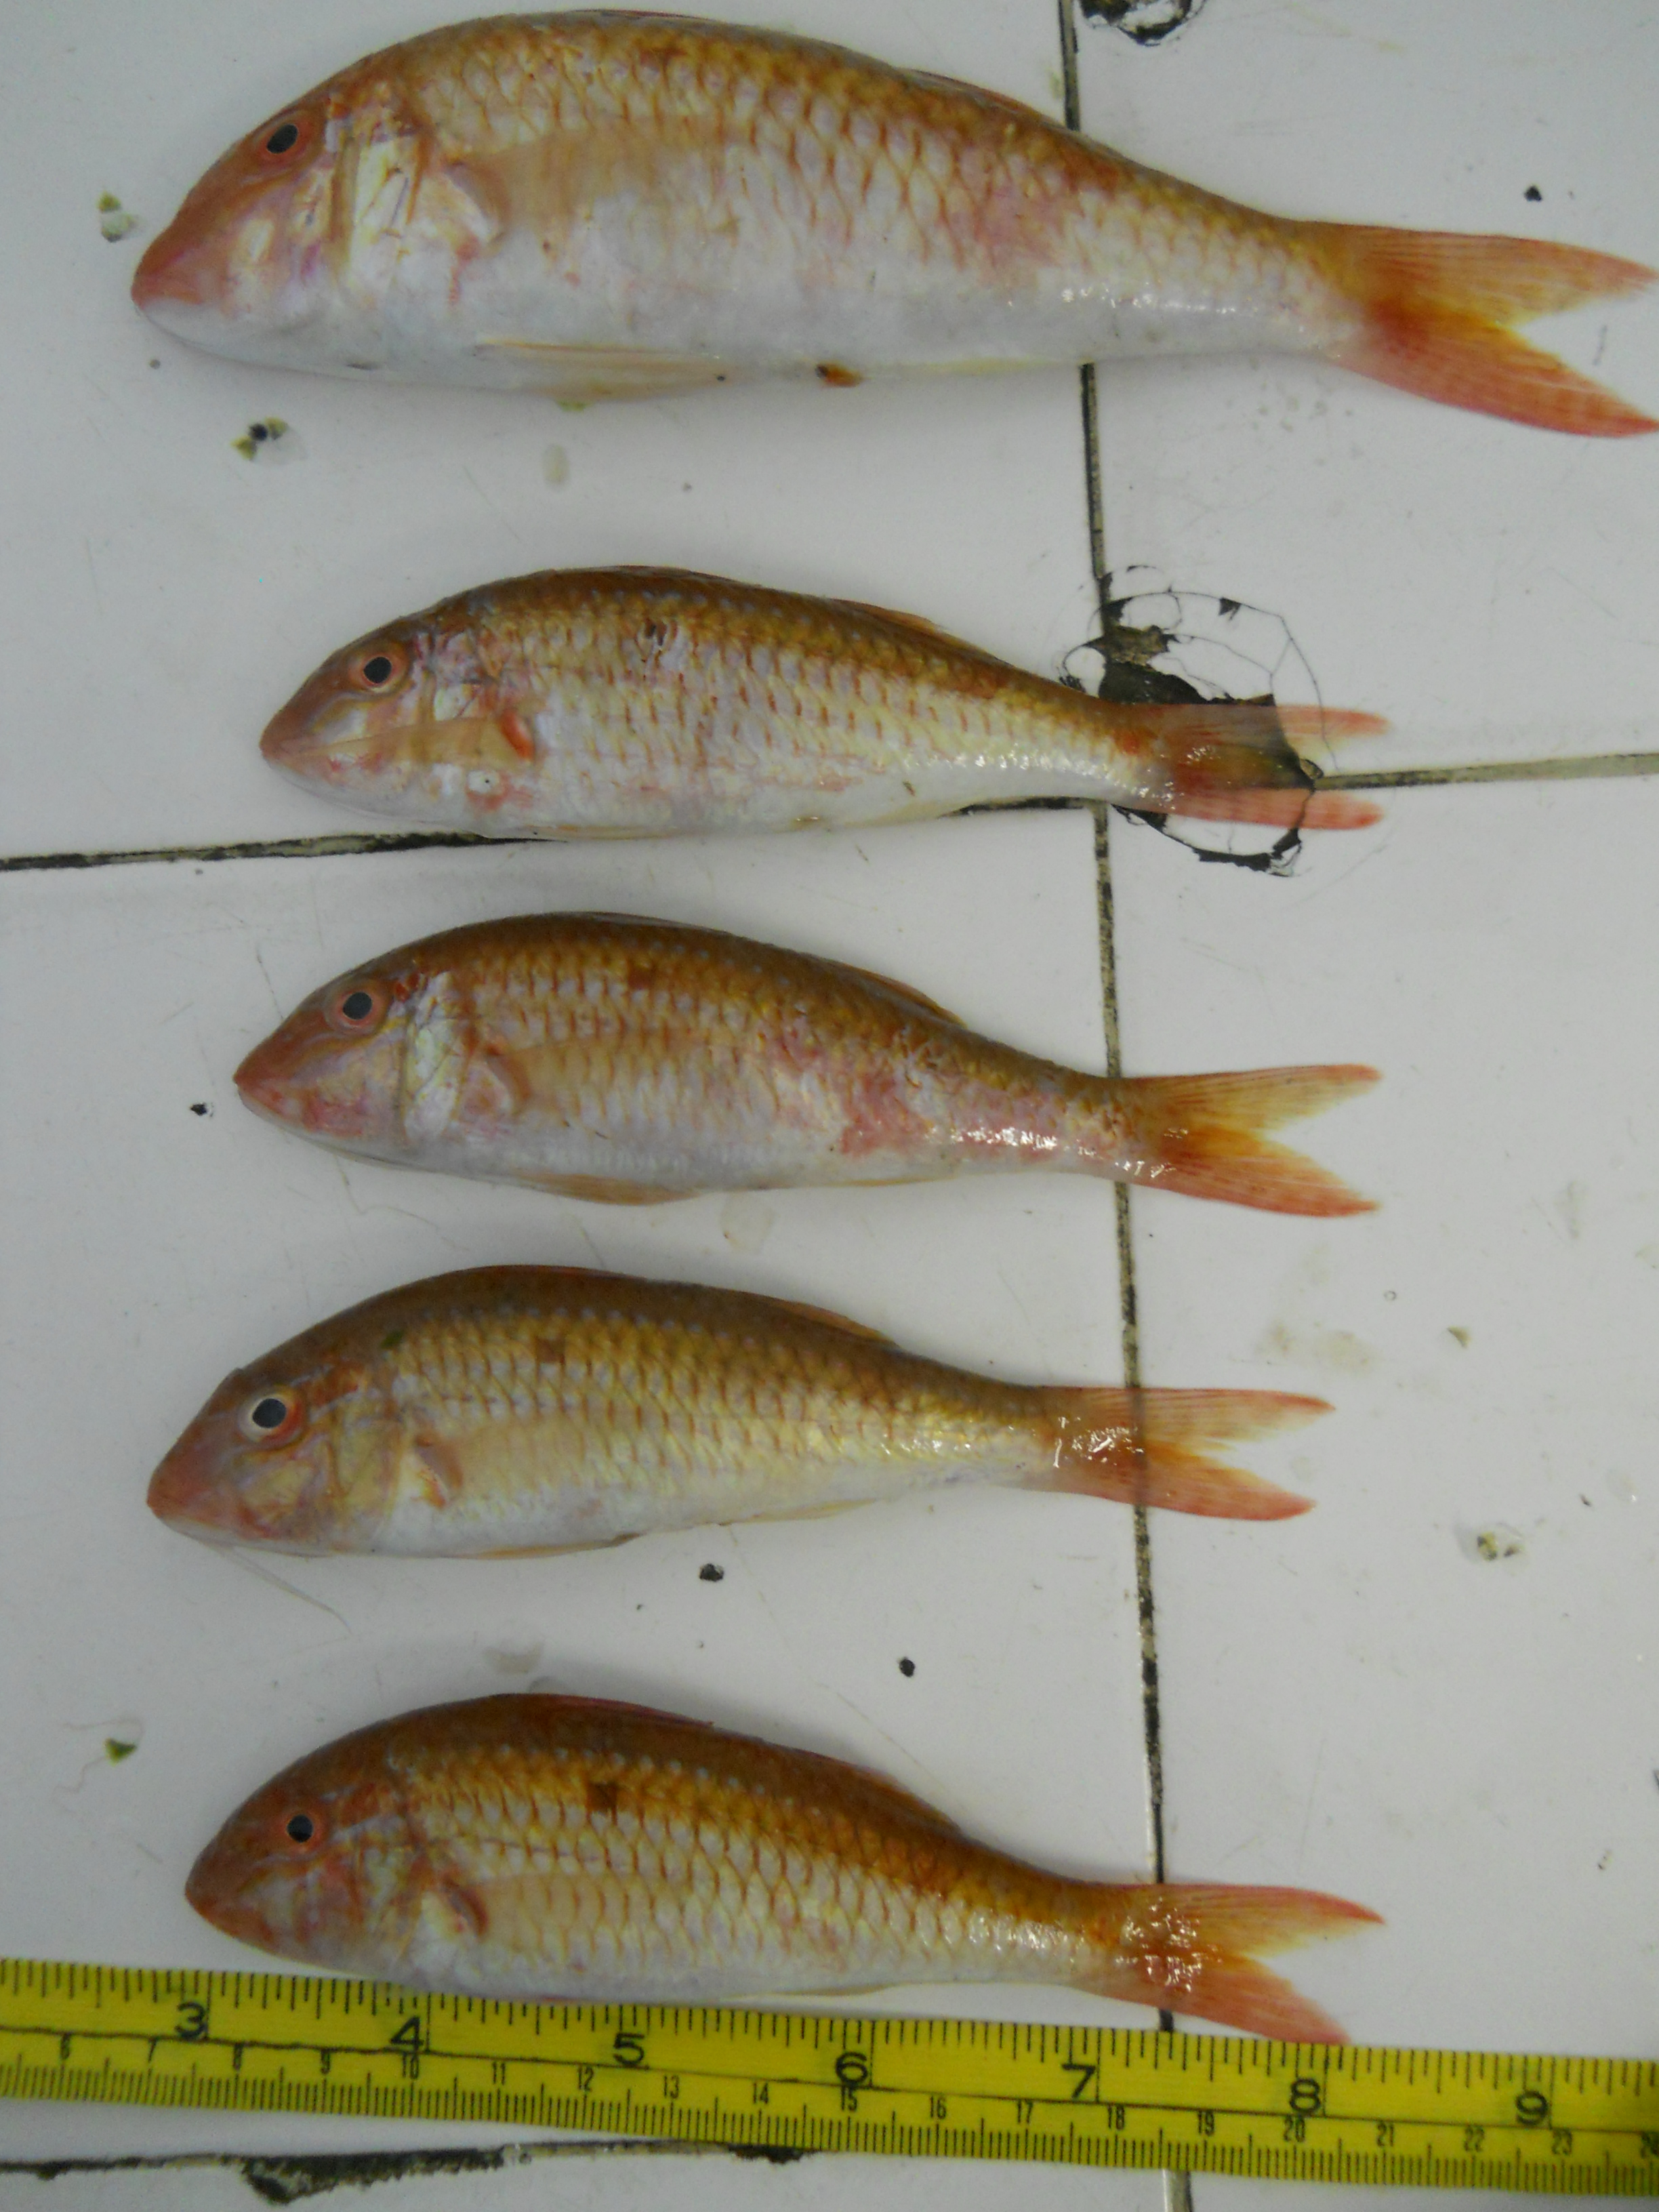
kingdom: Animalia
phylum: Chordata
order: Perciformes
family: Mullidae
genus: Parupeneus
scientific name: Parupeneus fraserorum
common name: Fraser’s goatfish
